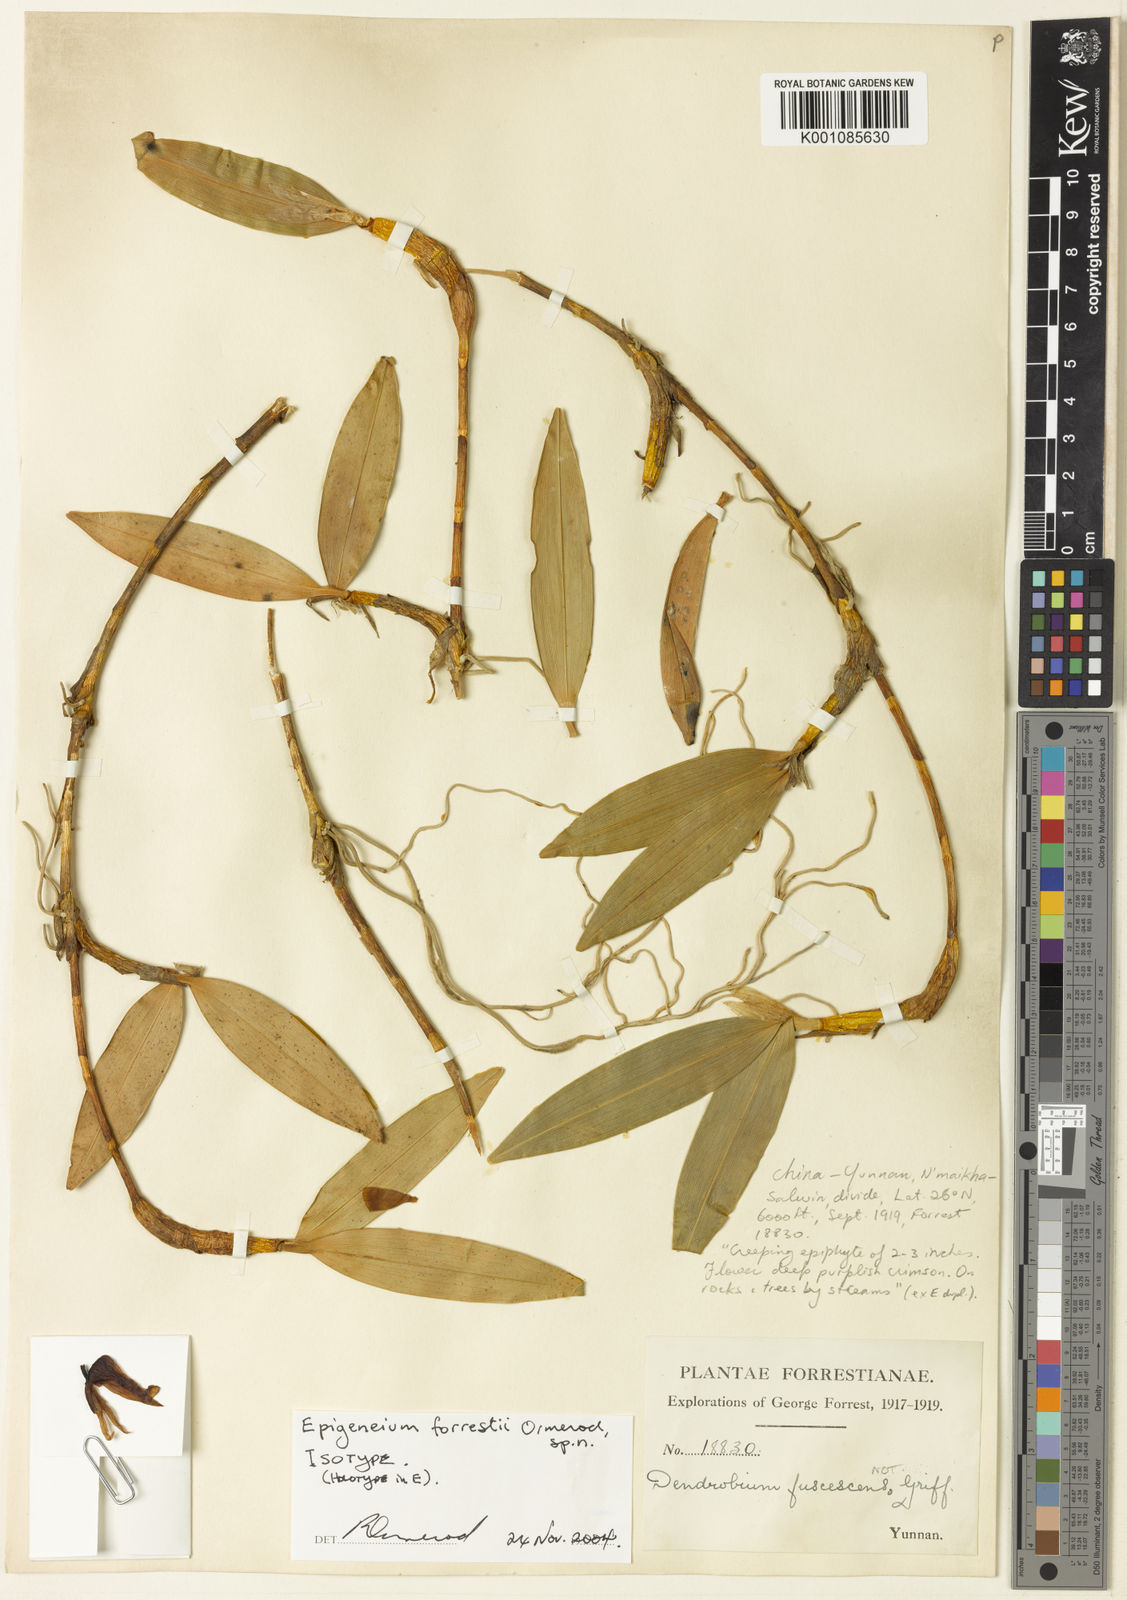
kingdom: Plantae
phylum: Tracheophyta
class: Liliopsida
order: Asparagales
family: Orchidaceae
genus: Dendrobium
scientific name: Dendrobium forrestii
